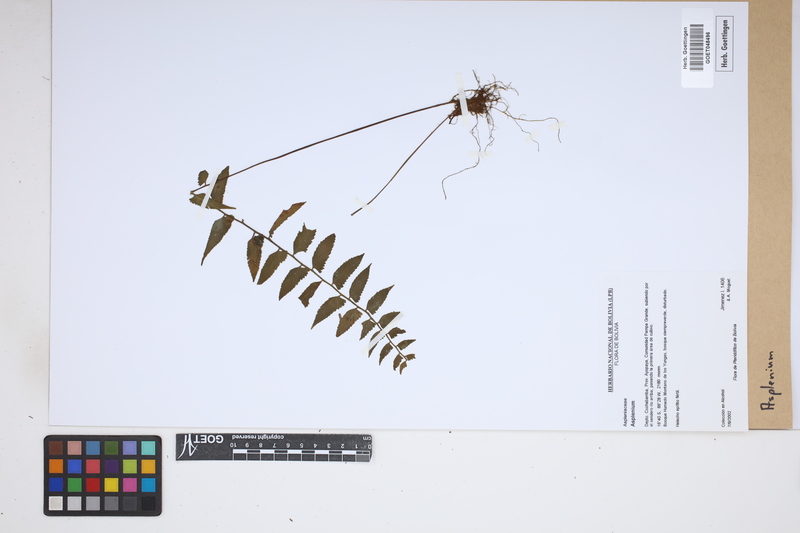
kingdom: Plantae
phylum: Tracheophyta
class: Polypodiopsida
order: Polypodiales
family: Aspleniaceae
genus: Asplenium
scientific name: Asplenium
